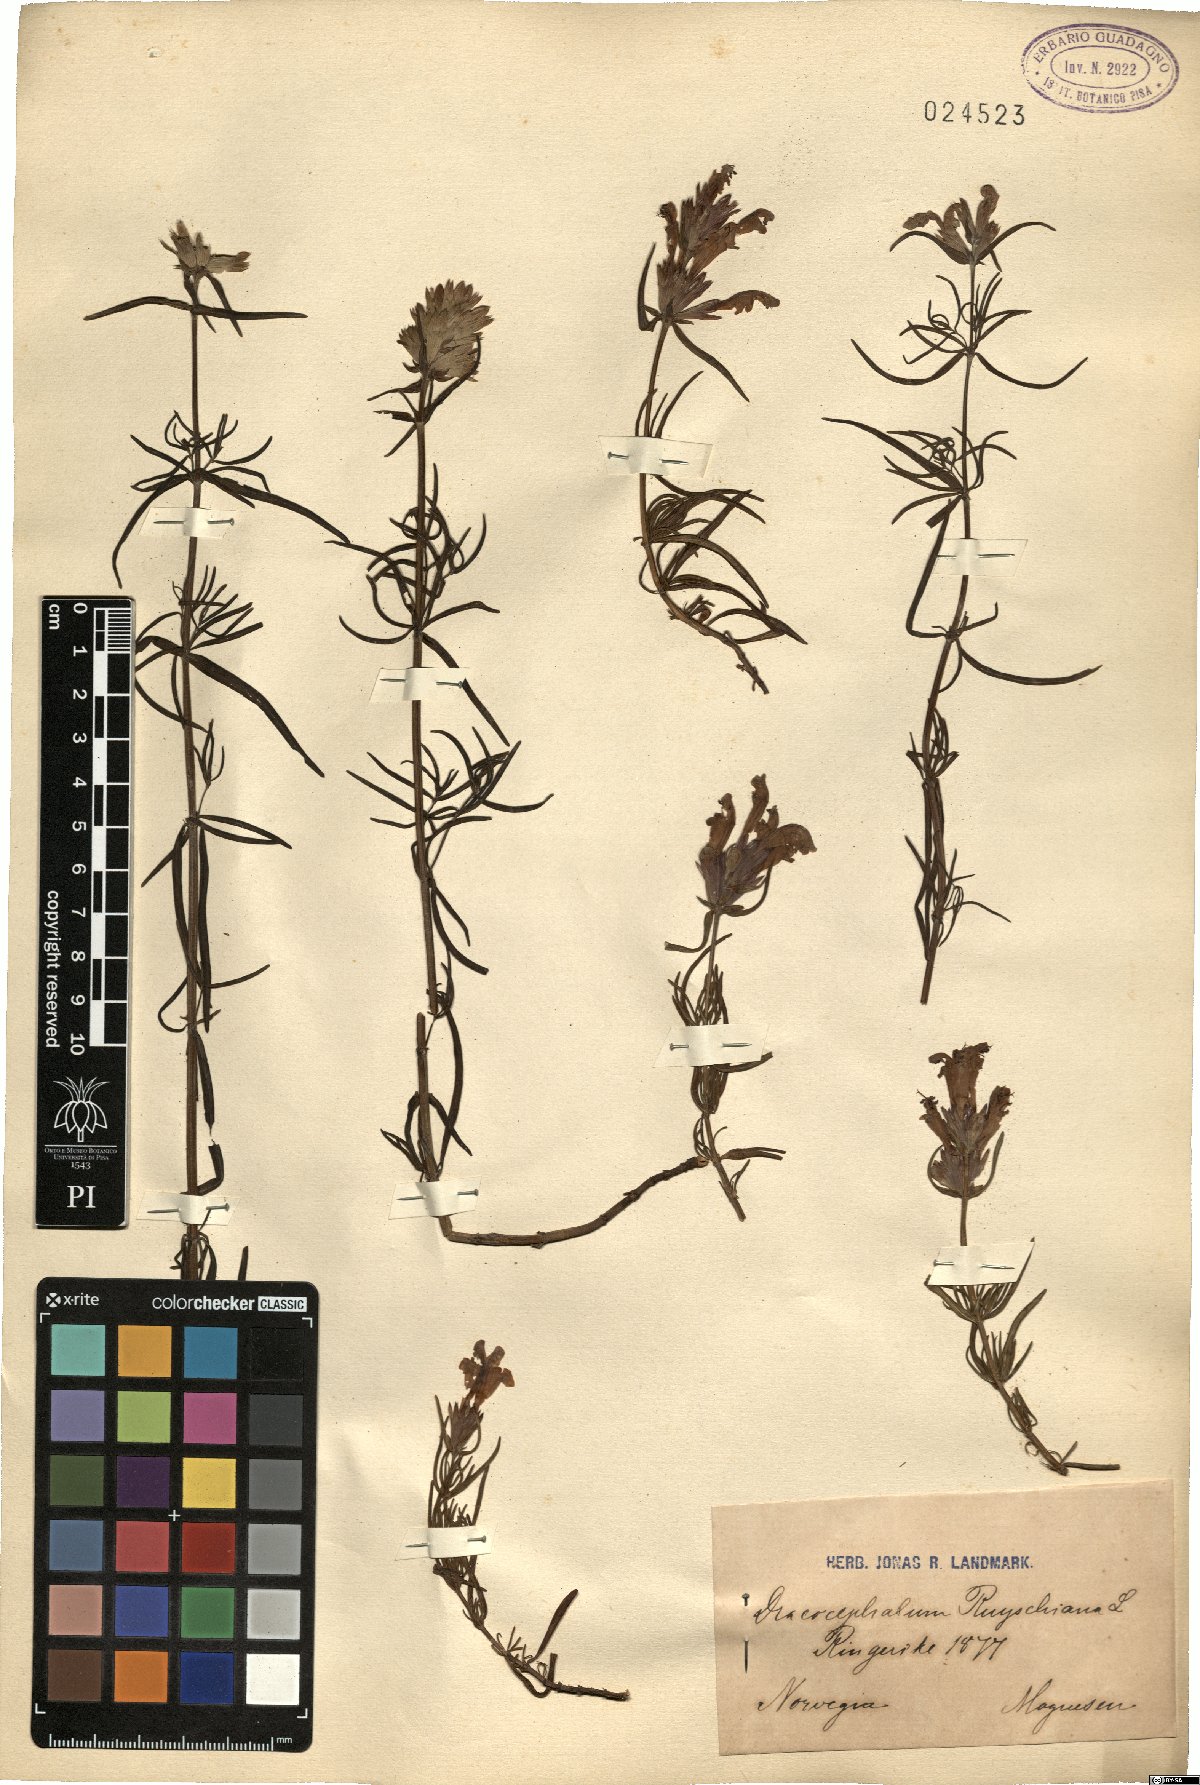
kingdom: Plantae
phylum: Tracheophyta
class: Magnoliopsida
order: Lamiales
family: Lamiaceae
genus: Dracocephalum
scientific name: Dracocephalum ruyschiana
